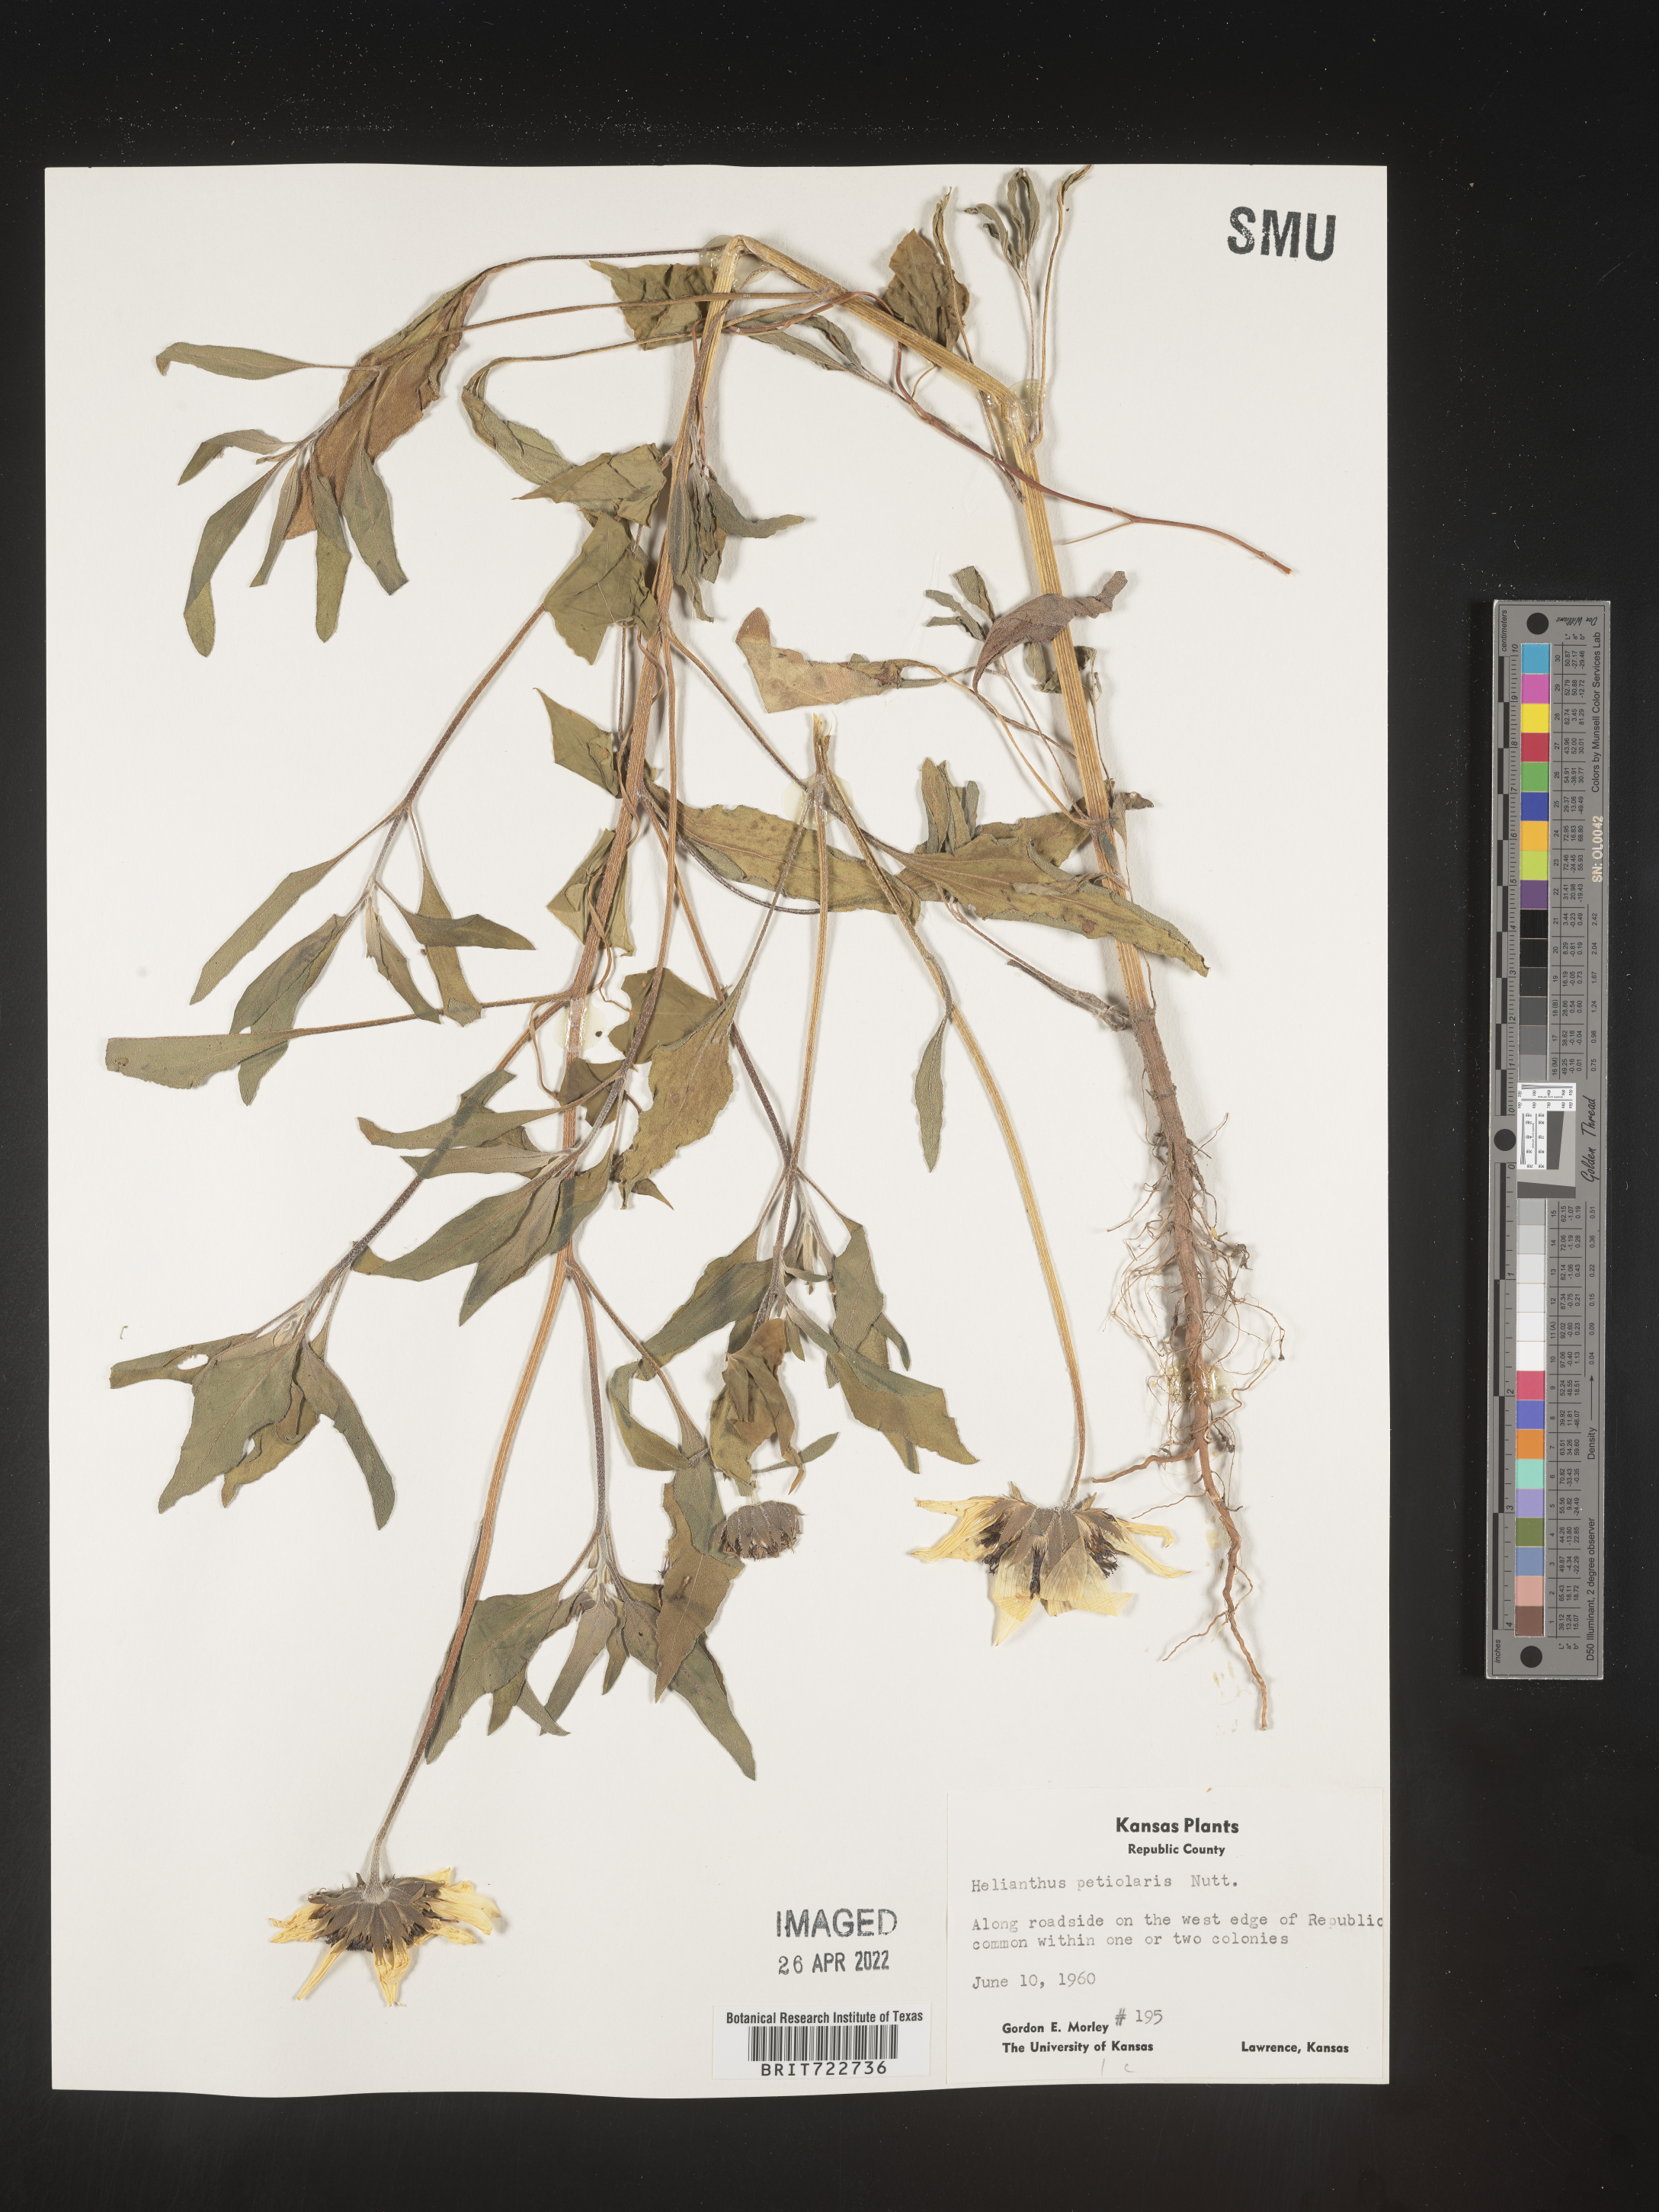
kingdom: Plantae
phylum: Tracheophyta
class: Magnoliopsida
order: Asterales
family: Asteraceae
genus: Helianthus
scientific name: Helianthus petiolaris
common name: Lesser sunflower
